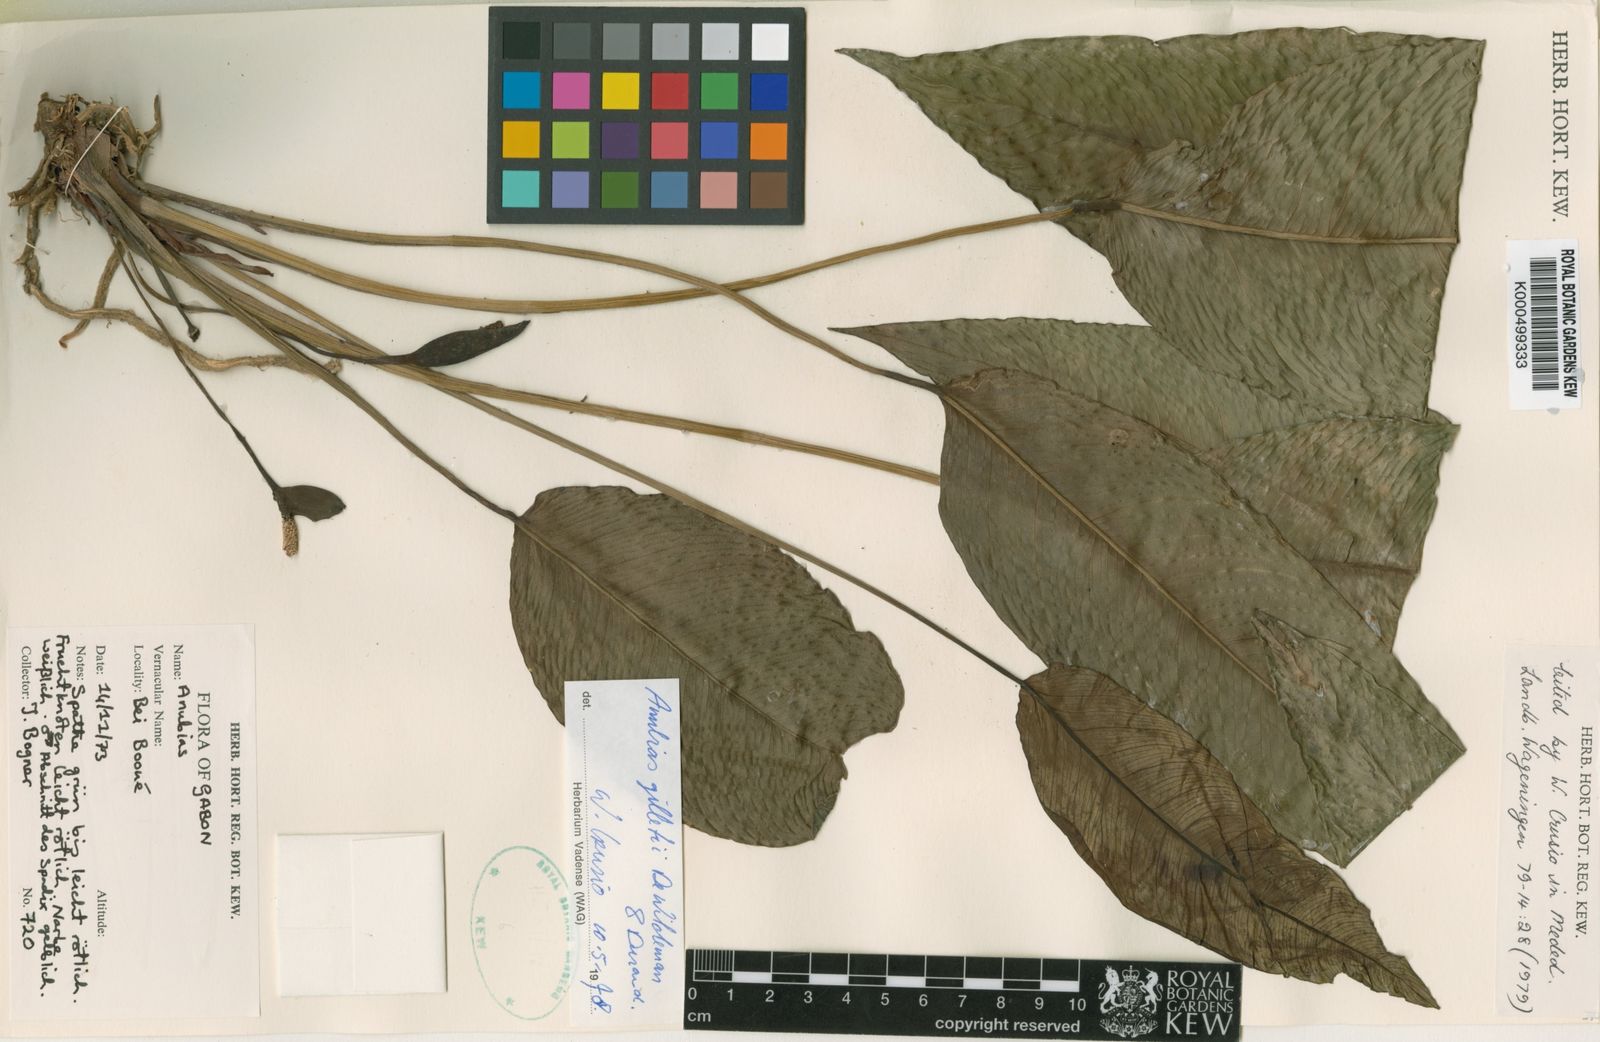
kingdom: Plantae
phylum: Tracheophyta
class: Liliopsida
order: Alismatales
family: Araceae
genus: Anubias
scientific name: Anubias gilletii
